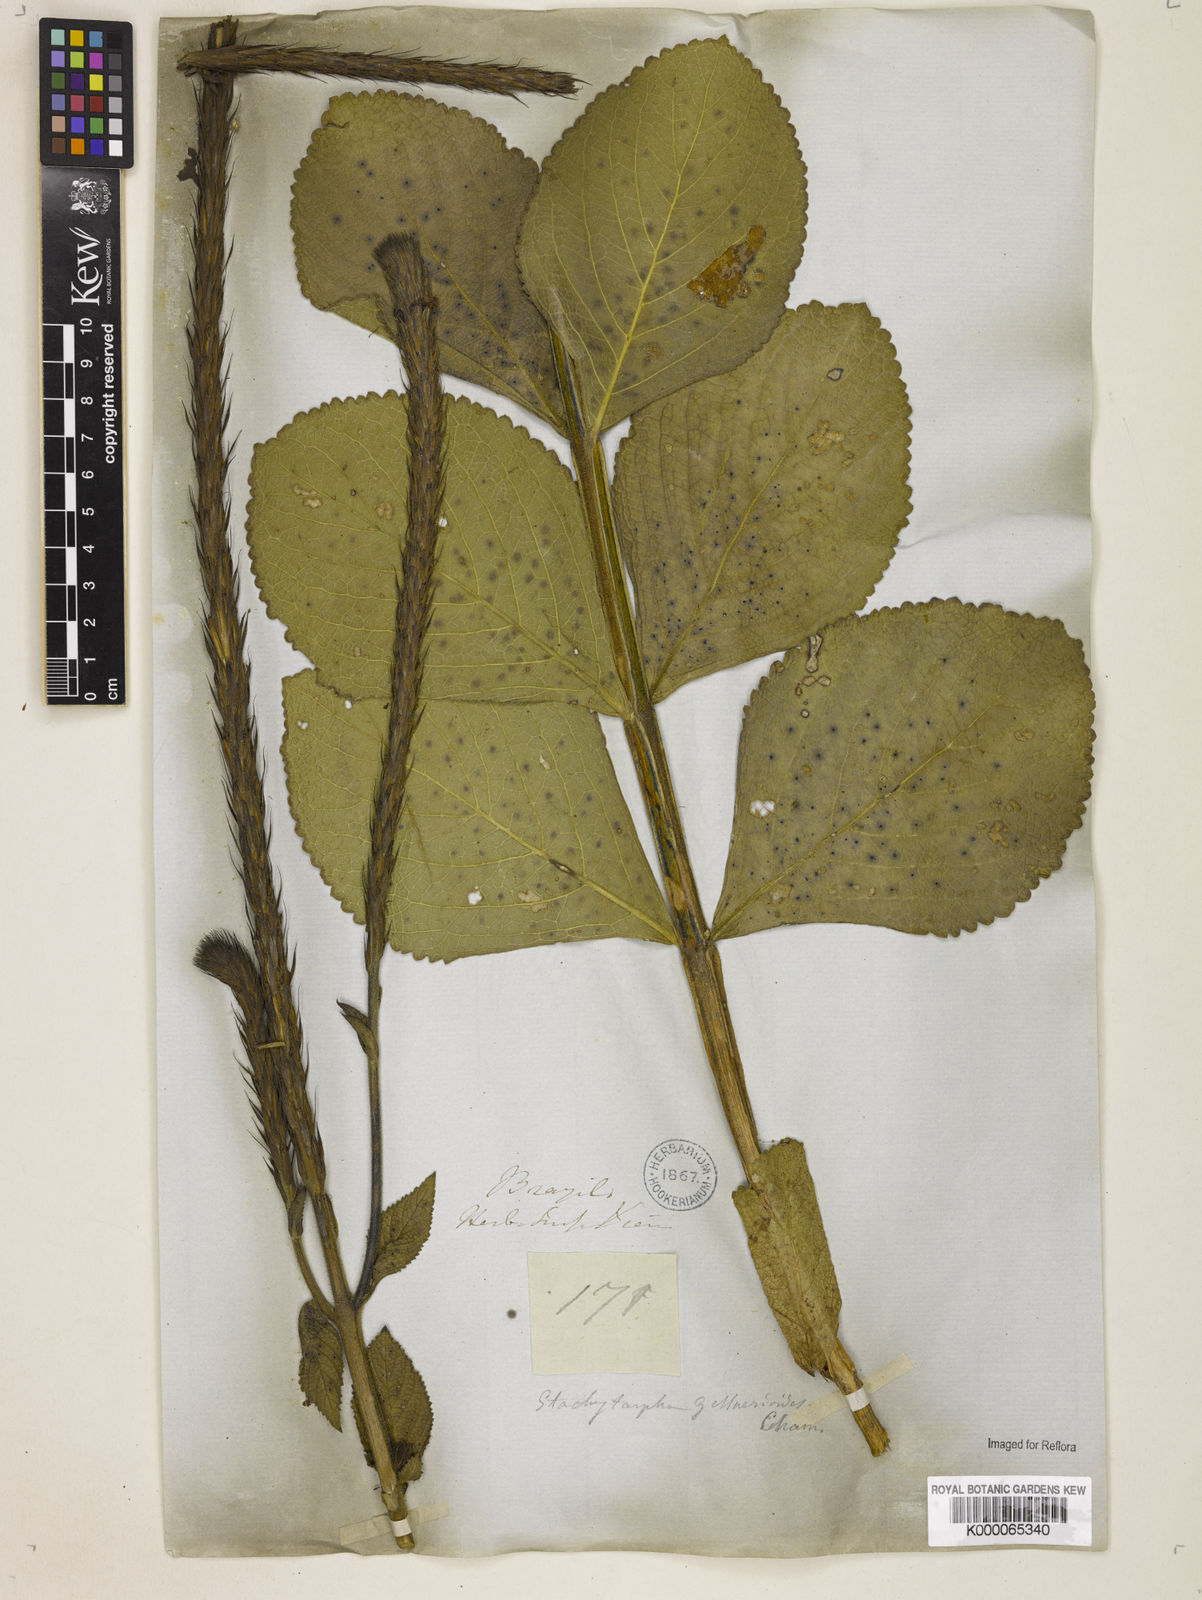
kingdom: Plantae
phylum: Tracheophyta
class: Magnoliopsida
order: Lamiales
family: Verbenaceae
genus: Stachytarpheta
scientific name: Stachytarpheta gesnerioides
